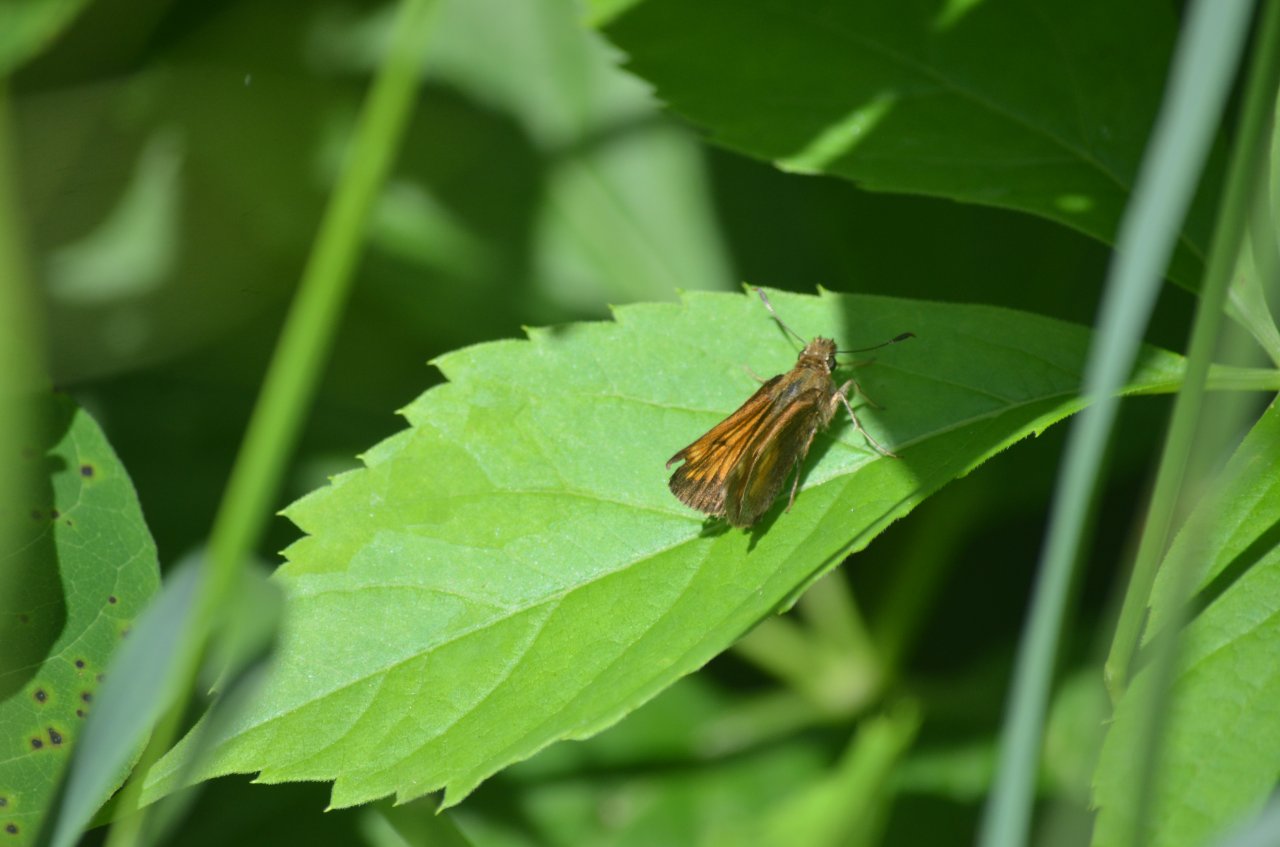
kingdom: Animalia
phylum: Arthropoda
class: Insecta
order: Lepidoptera
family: Hesperiidae
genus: Lon
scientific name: Lon hobomok
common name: Hobomok Skipper
